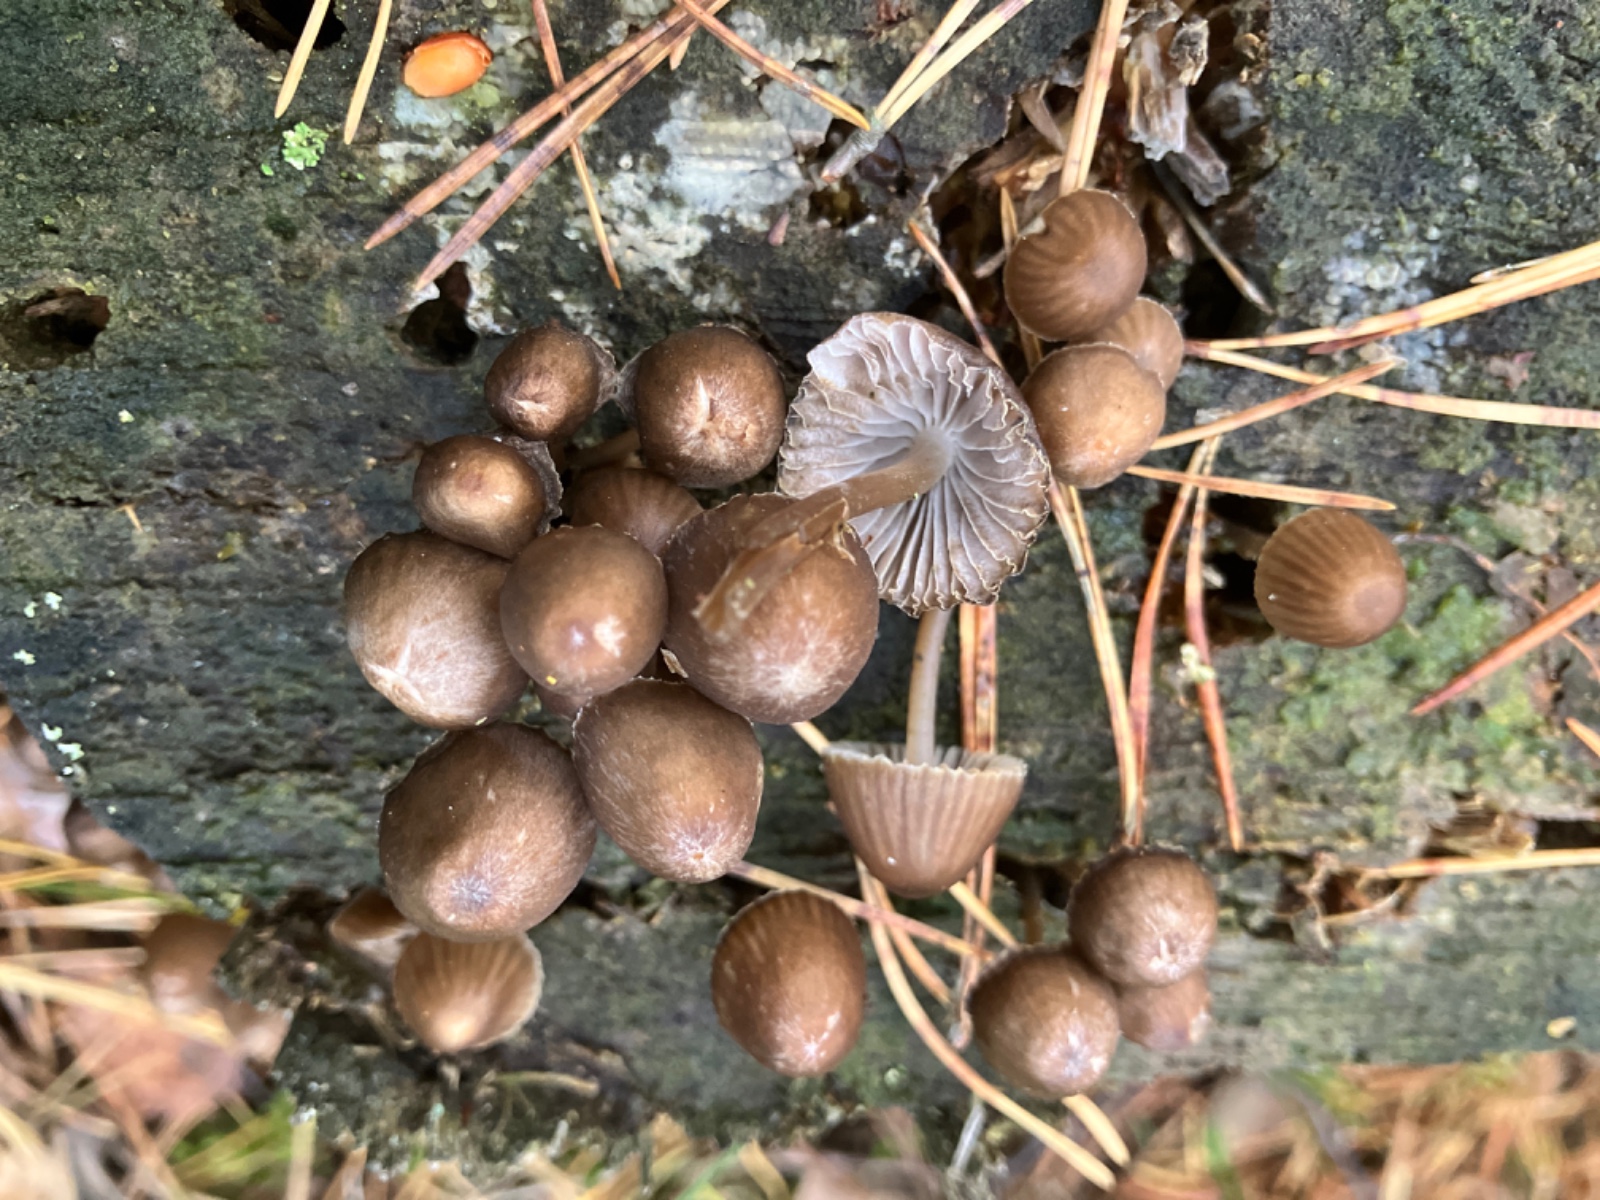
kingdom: Fungi
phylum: Basidiomycota
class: Agaricomycetes
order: Agaricales
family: Mycenaceae
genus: Mycena
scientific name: Mycena stipata
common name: stinkende huesvamp
